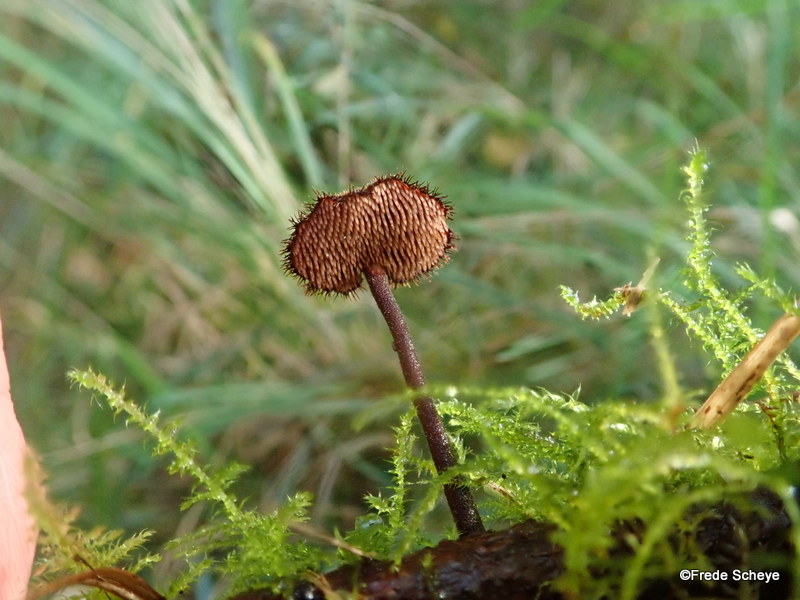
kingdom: Fungi
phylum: Basidiomycota
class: Agaricomycetes
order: Russulales
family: Auriscalpiaceae
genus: Auriscalpium
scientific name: Auriscalpium vulgare
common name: koglepigsvamp
